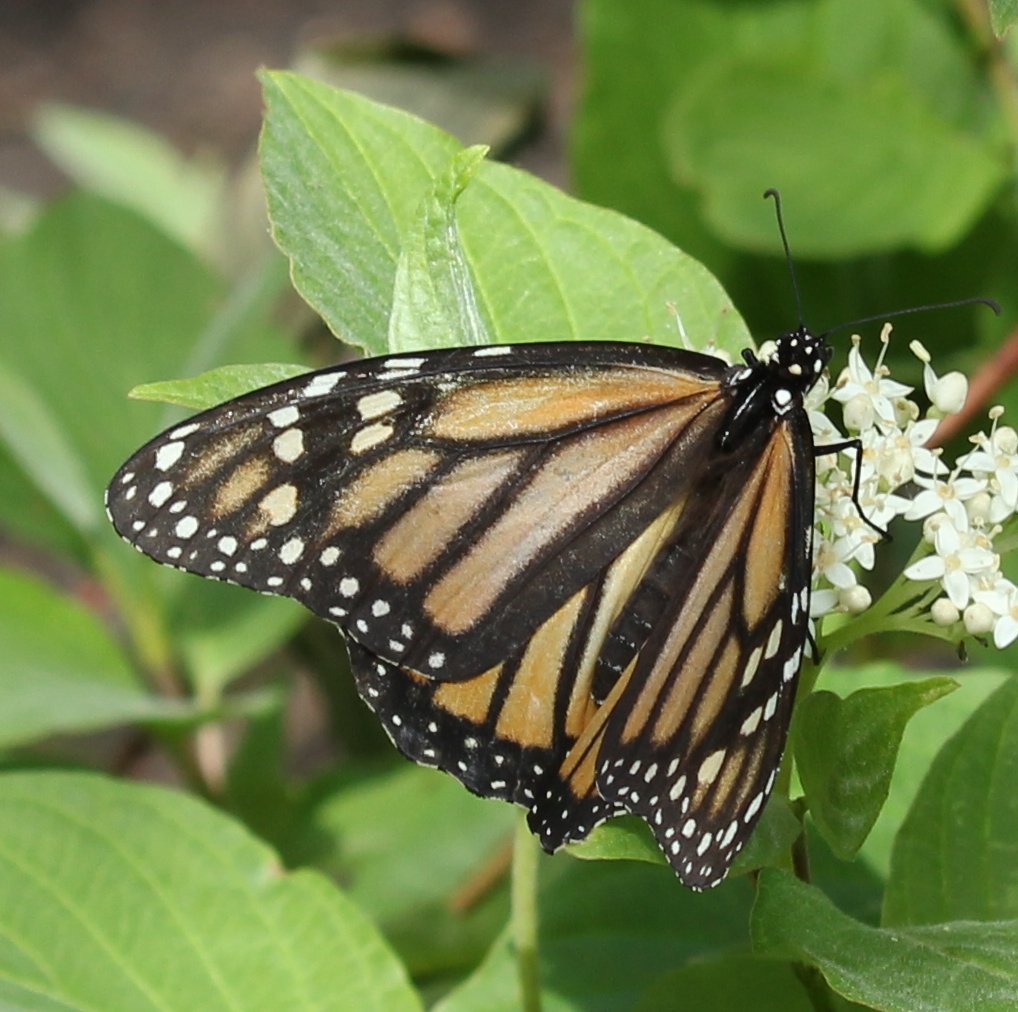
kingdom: Animalia
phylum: Arthropoda
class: Insecta
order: Lepidoptera
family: Nymphalidae
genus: Danaus
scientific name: Danaus plexippus
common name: Monarch
